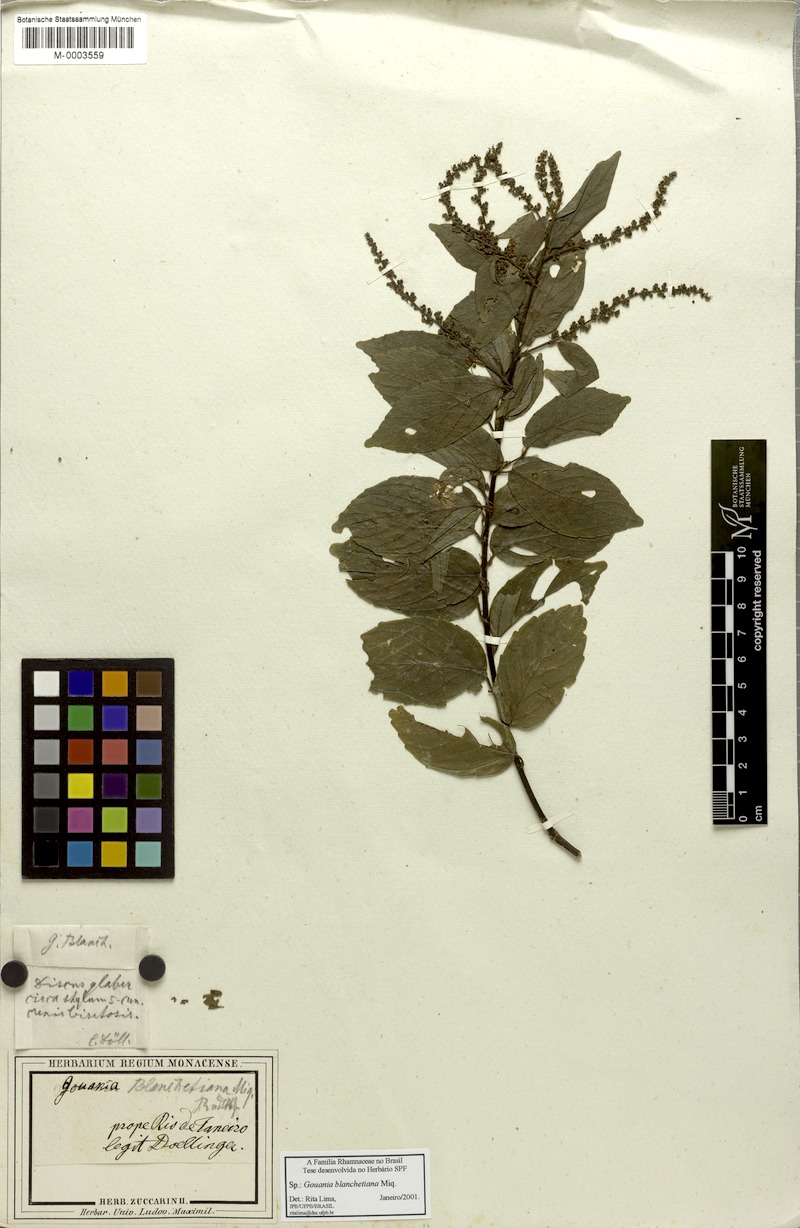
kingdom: Plantae
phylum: Tracheophyta
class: Magnoliopsida
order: Rosales
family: Rhamnaceae
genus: Gouania
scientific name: Gouania blanchetiana
